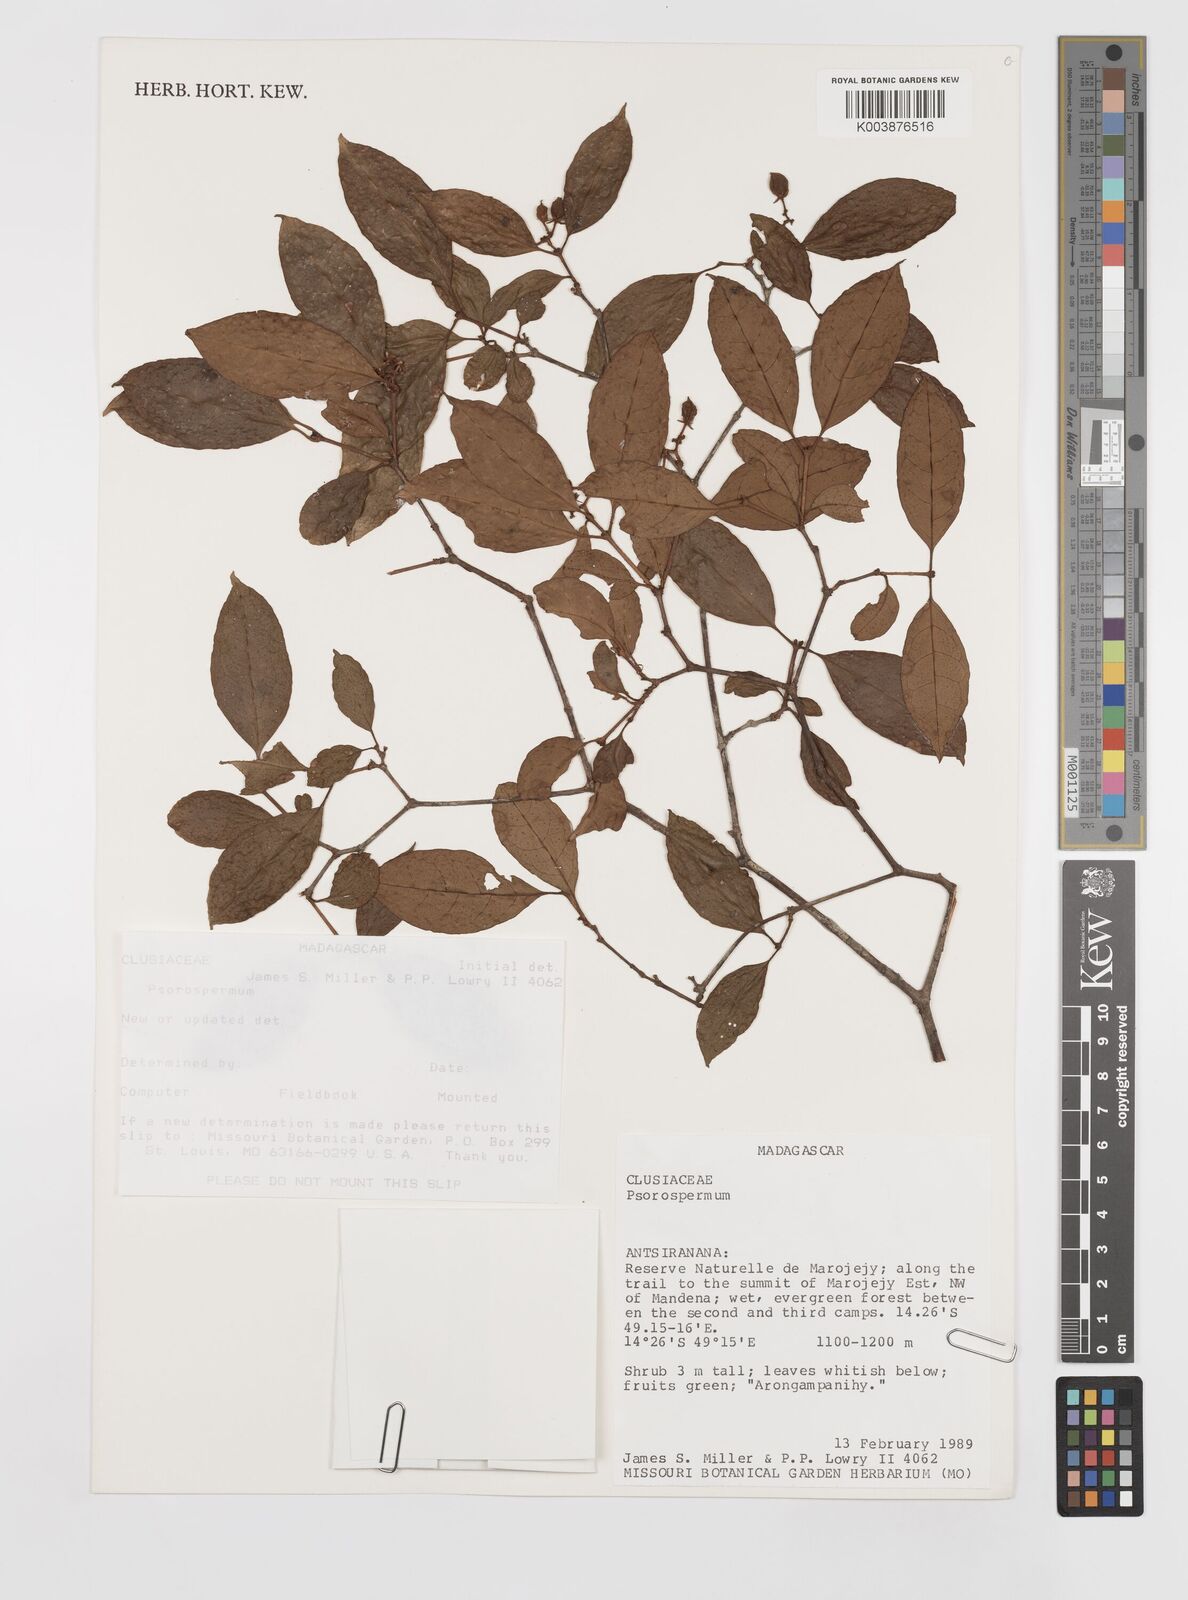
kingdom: Plantae
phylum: Tracheophyta
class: Magnoliopsida
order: Malpighiales
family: Hypericaceae
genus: Psorospermum
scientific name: Psorospermum
